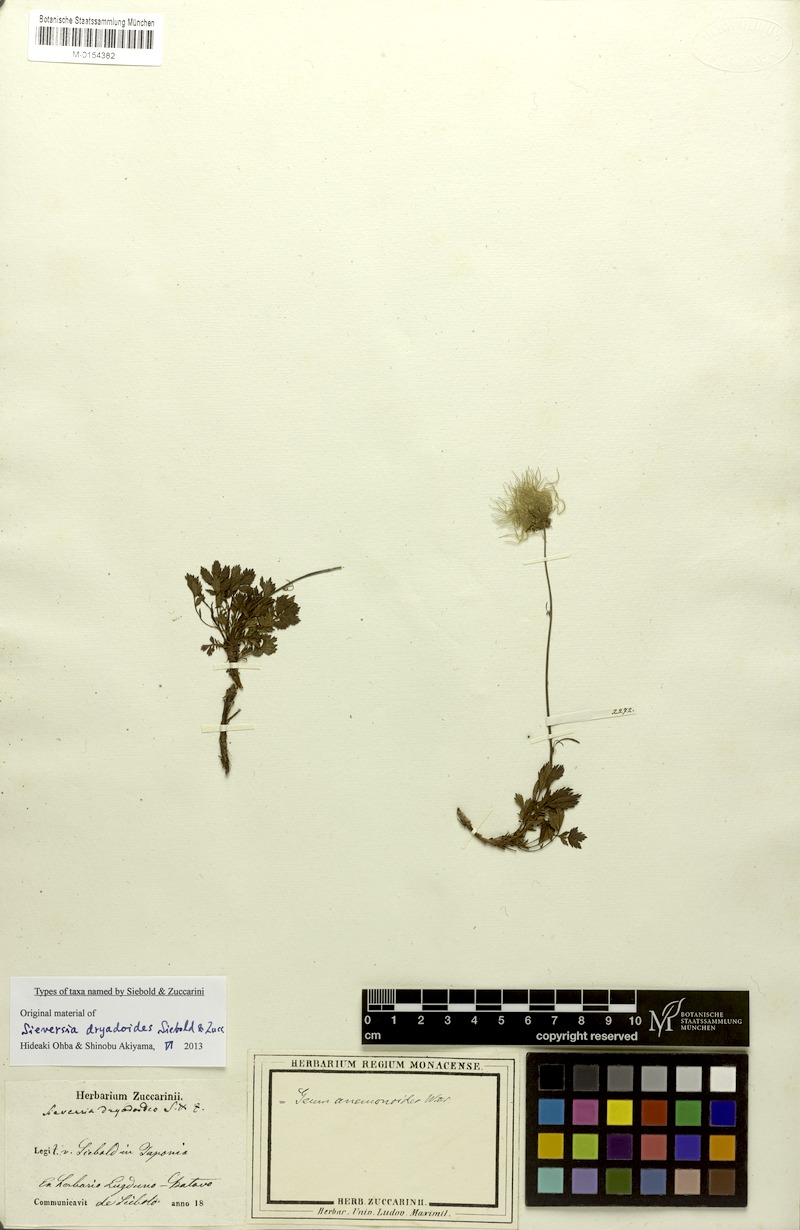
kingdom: Plantae
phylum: Tracheophyta
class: Magnoliopsida
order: Rosales
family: Rosaceae
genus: Geum
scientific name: Geum pentapetalum
